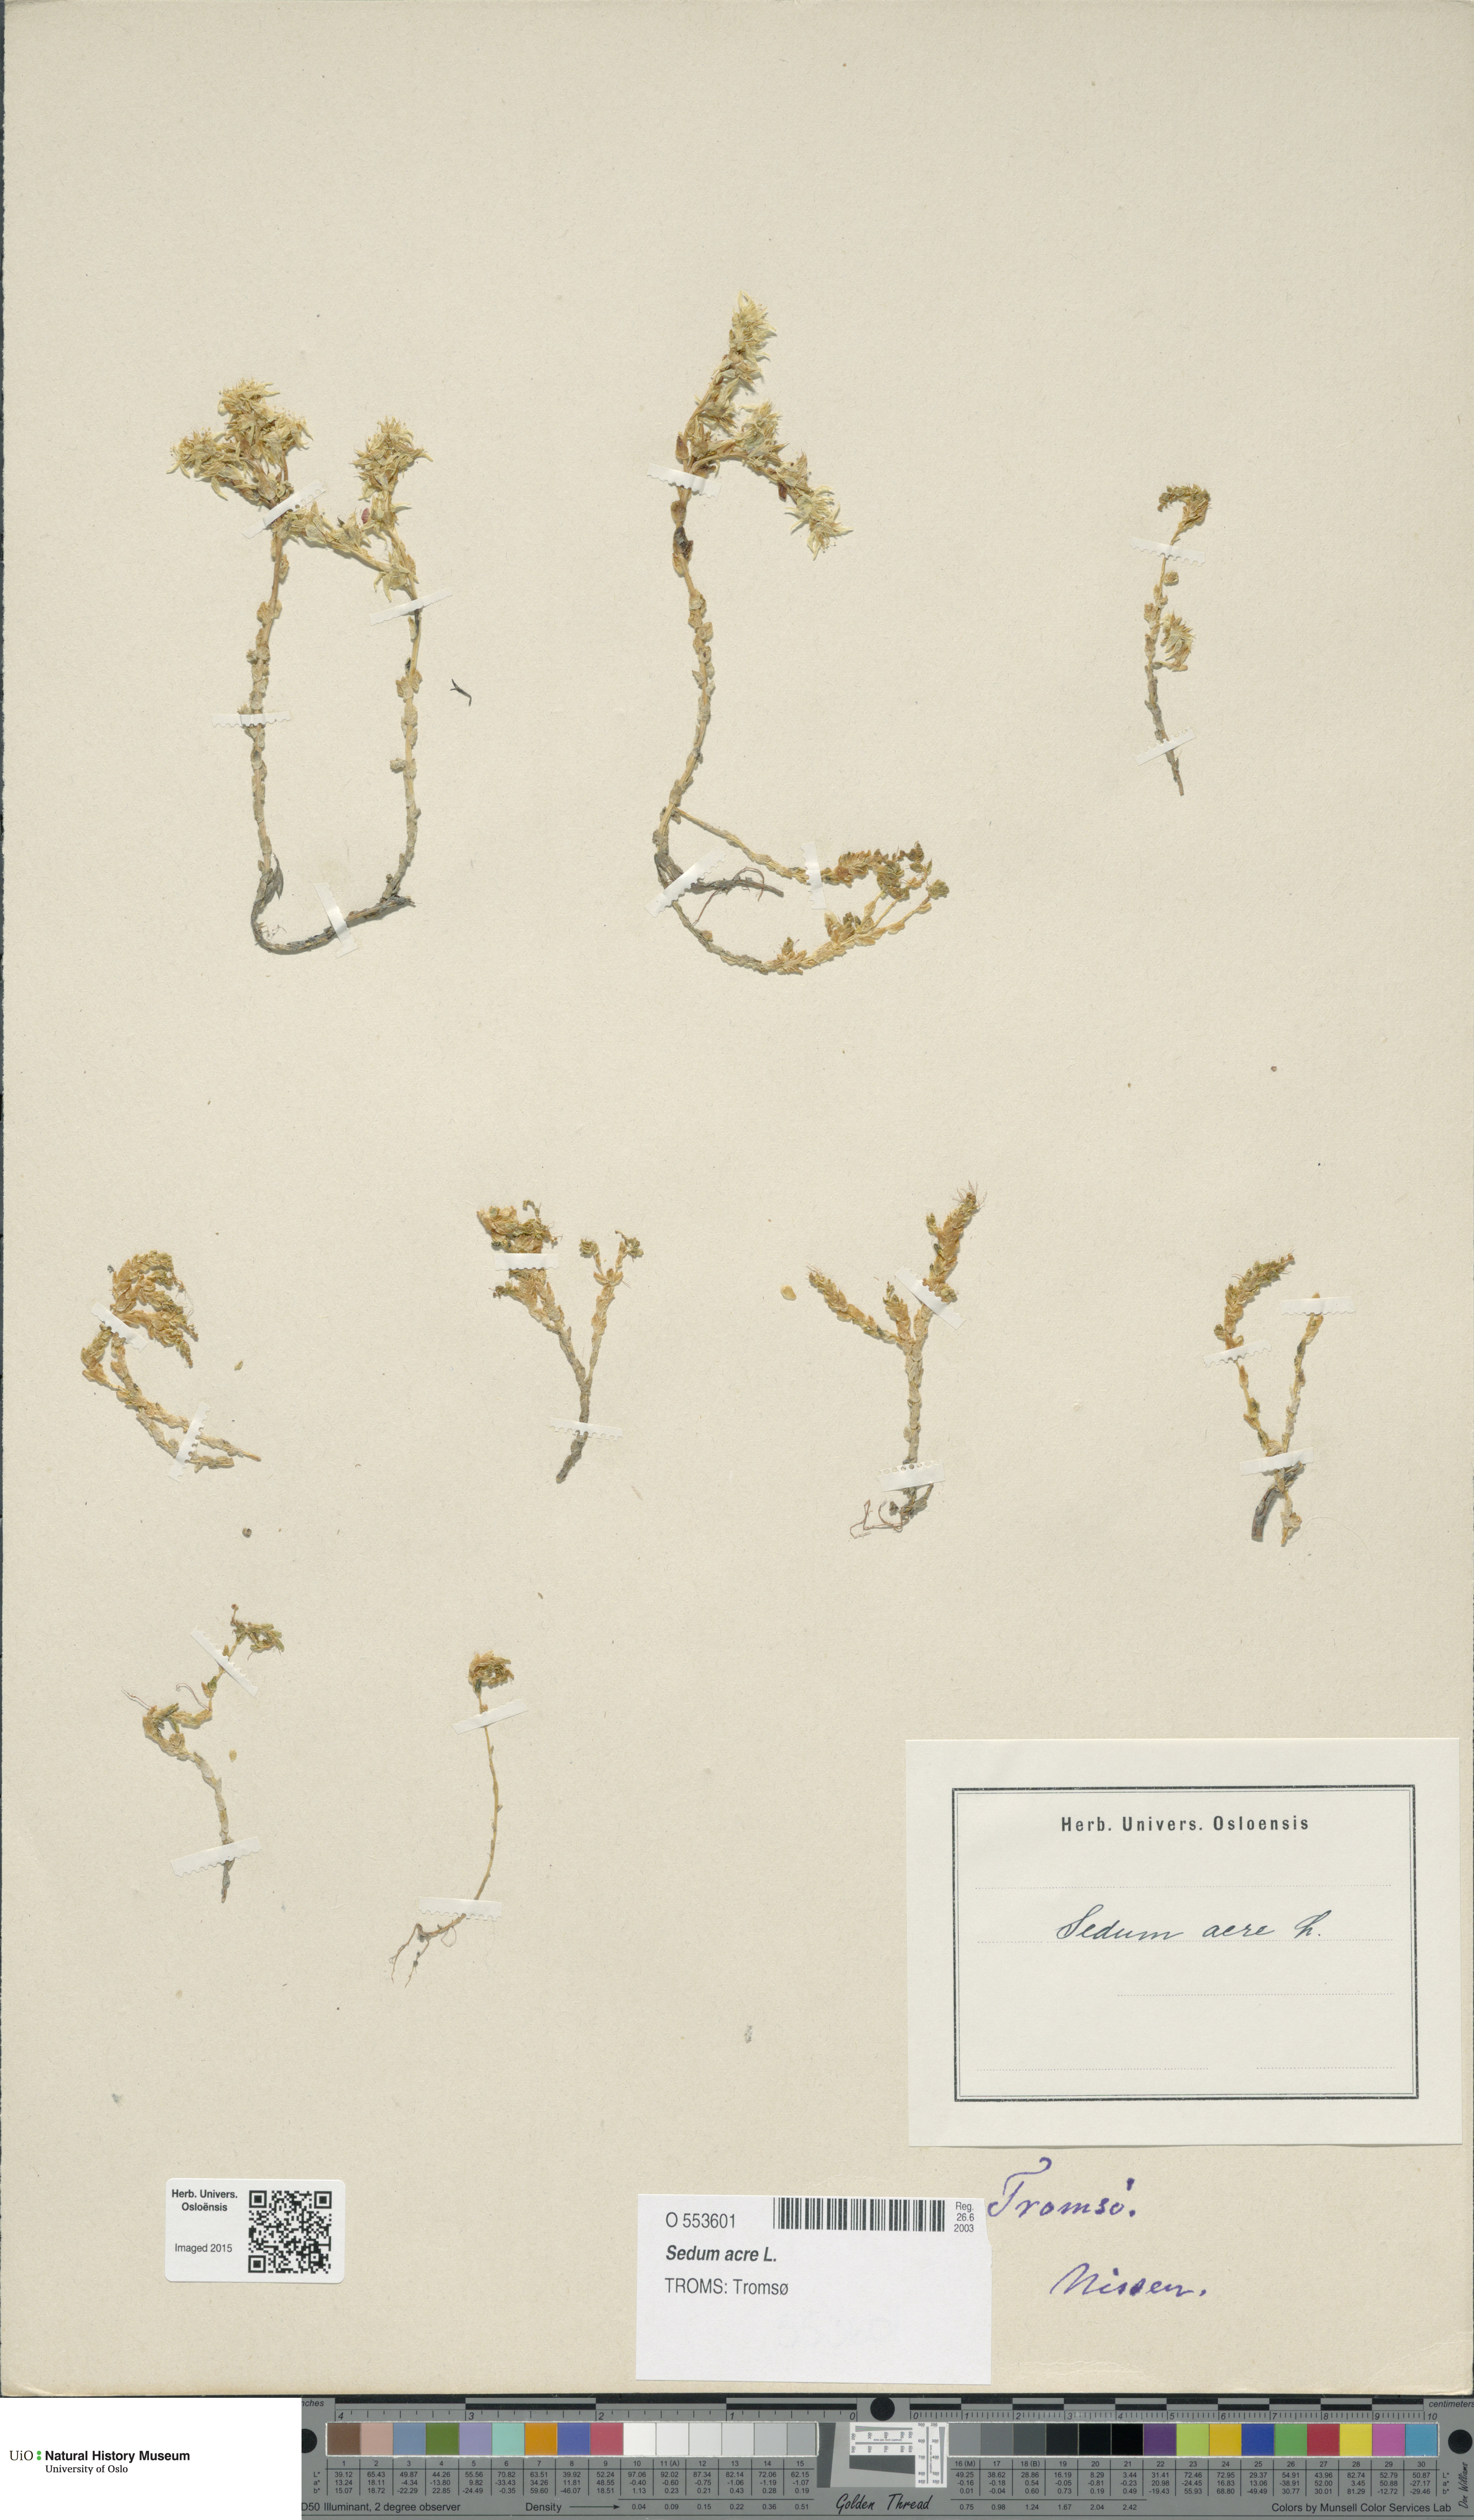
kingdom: Plantae
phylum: Tracheophyta
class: Magnoliopsida
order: Saxifragales
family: Crassulaceae
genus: Sedum
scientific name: Sedum acre
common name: Biting stonecrop
